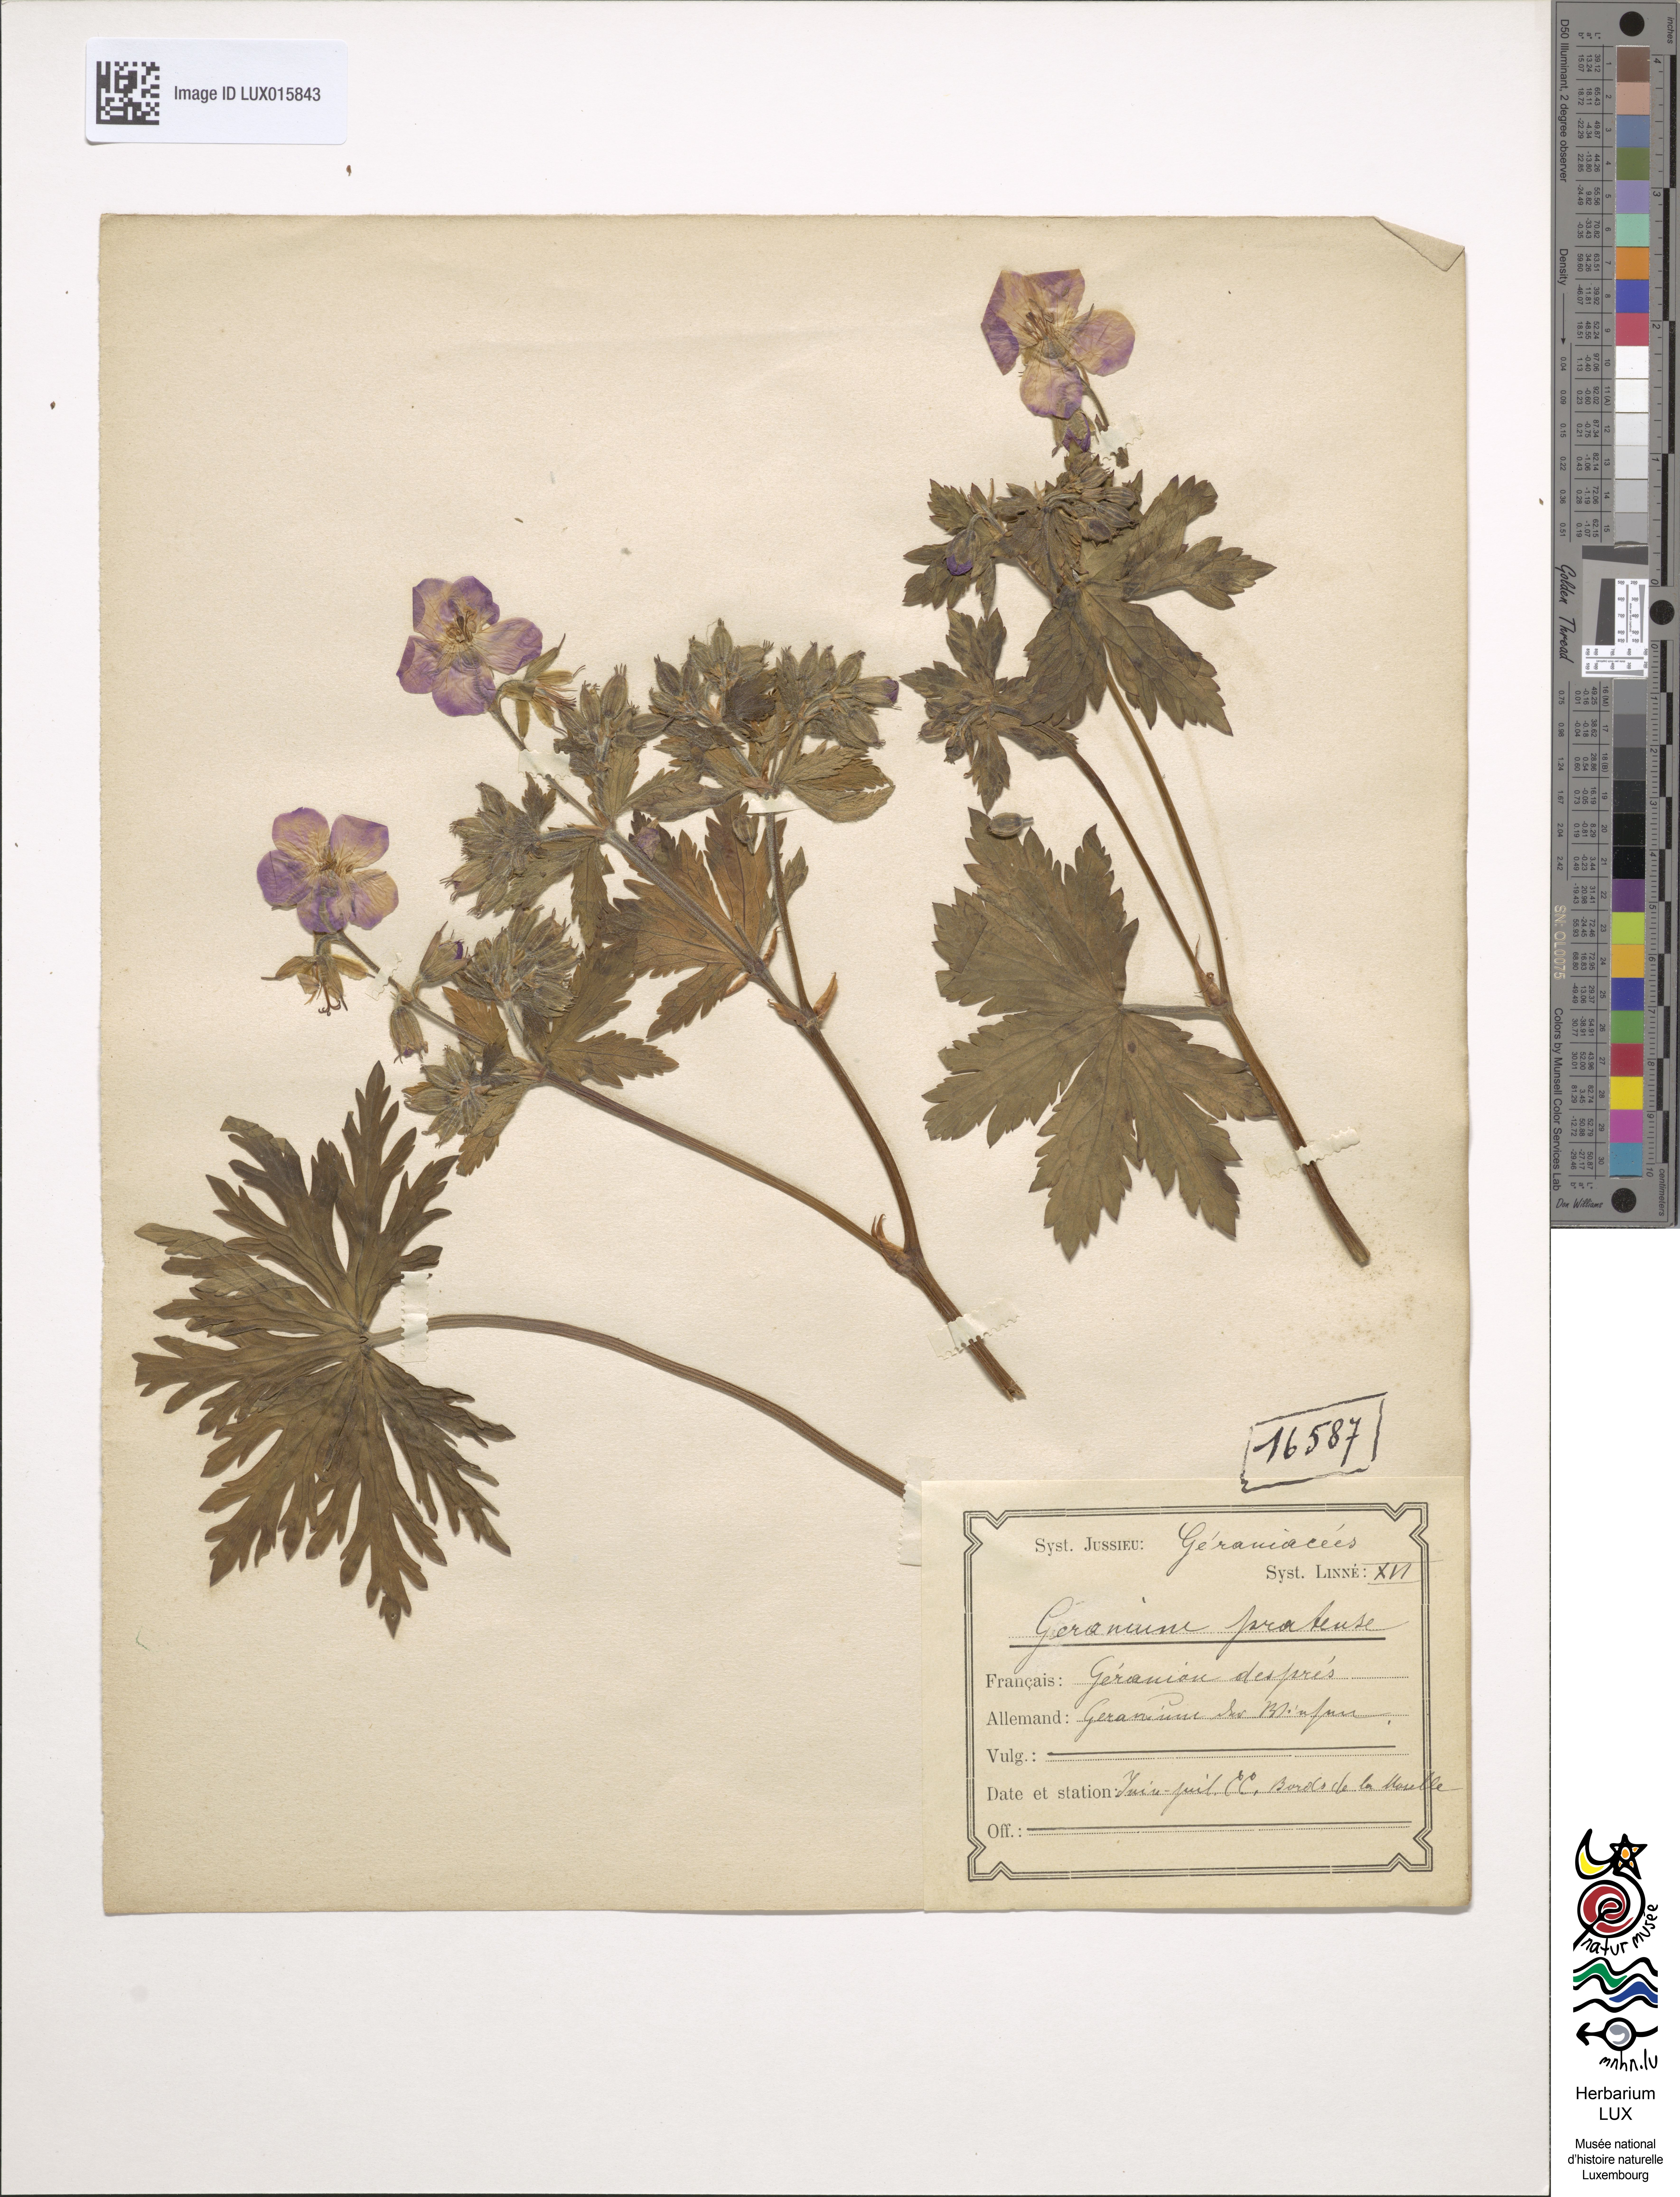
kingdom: Plantae
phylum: Tracheophyta
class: Magnoliopsida
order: Geraniales
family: Geraniaceae
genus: Geranium
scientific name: Geranium pratense
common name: Meadow crane's-bill
